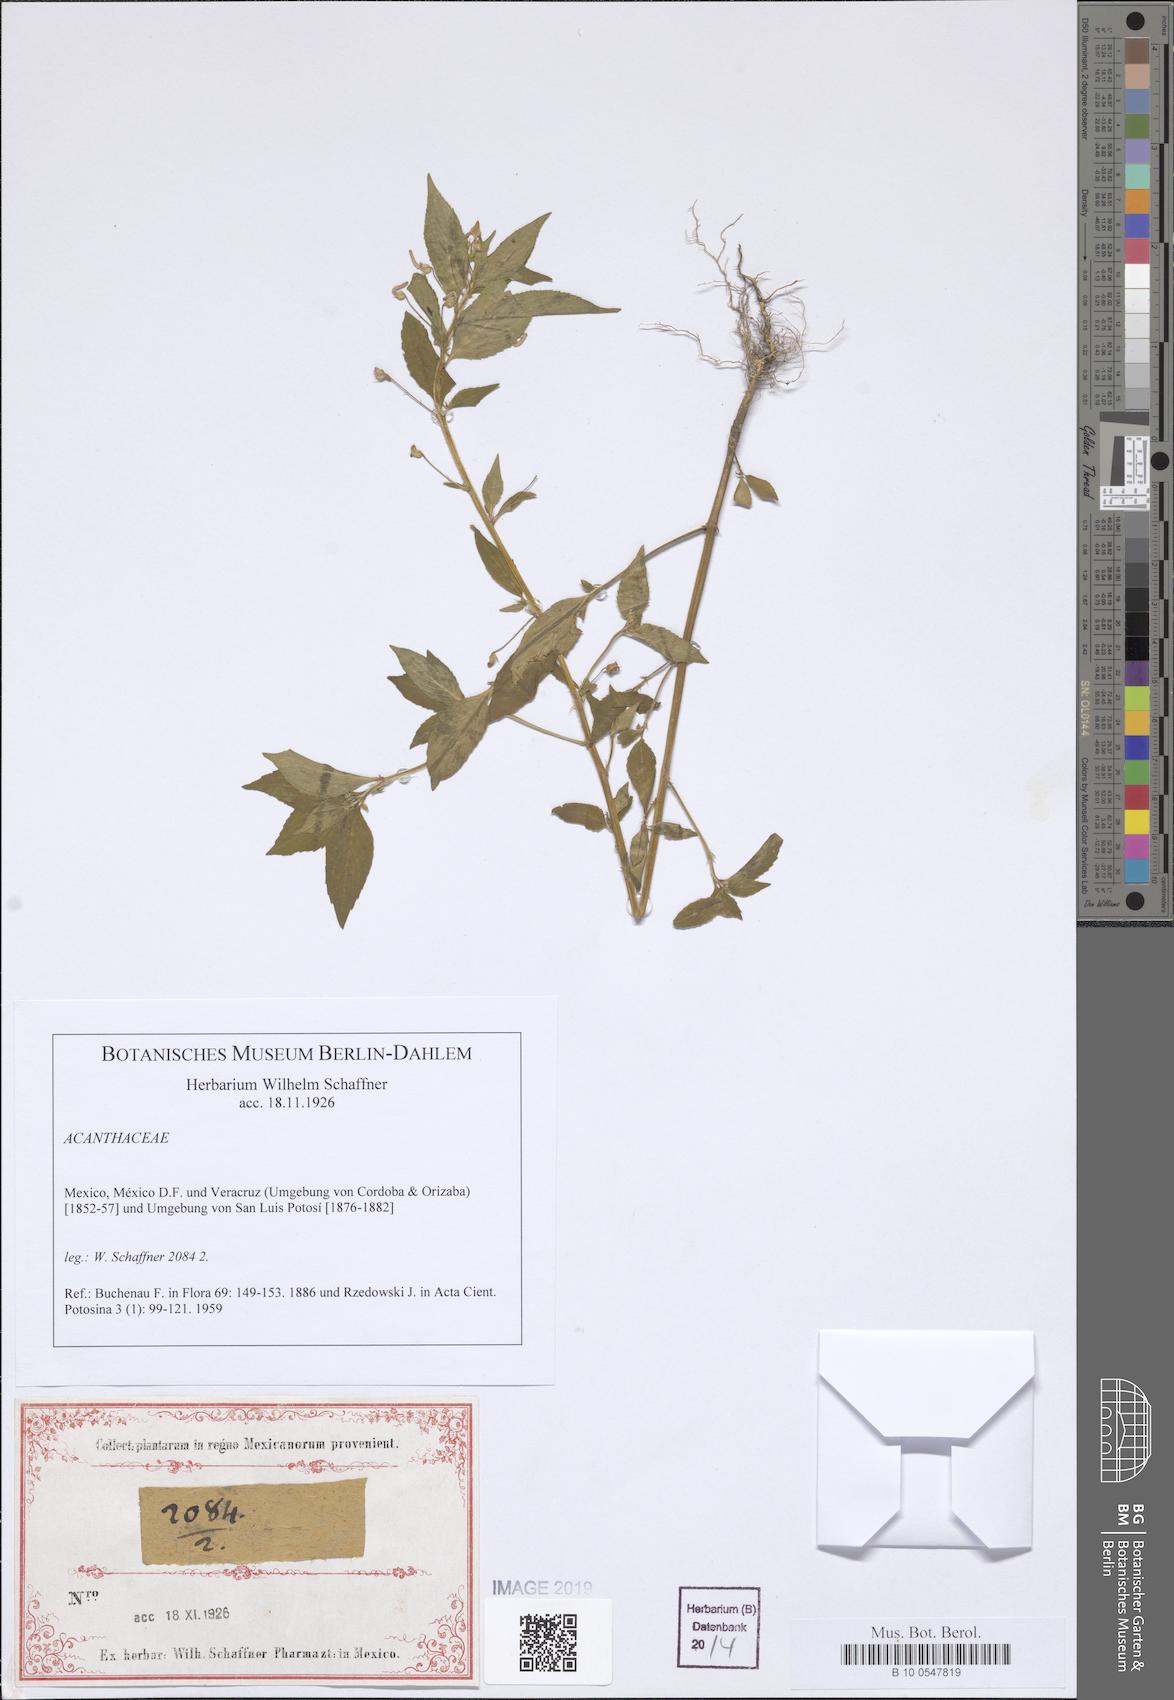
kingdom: Plantae
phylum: Tracheophyta
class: Magnoliopsida
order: Lamiales
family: Acanthaceae
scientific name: Acanthaceae
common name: Acanthaceae
